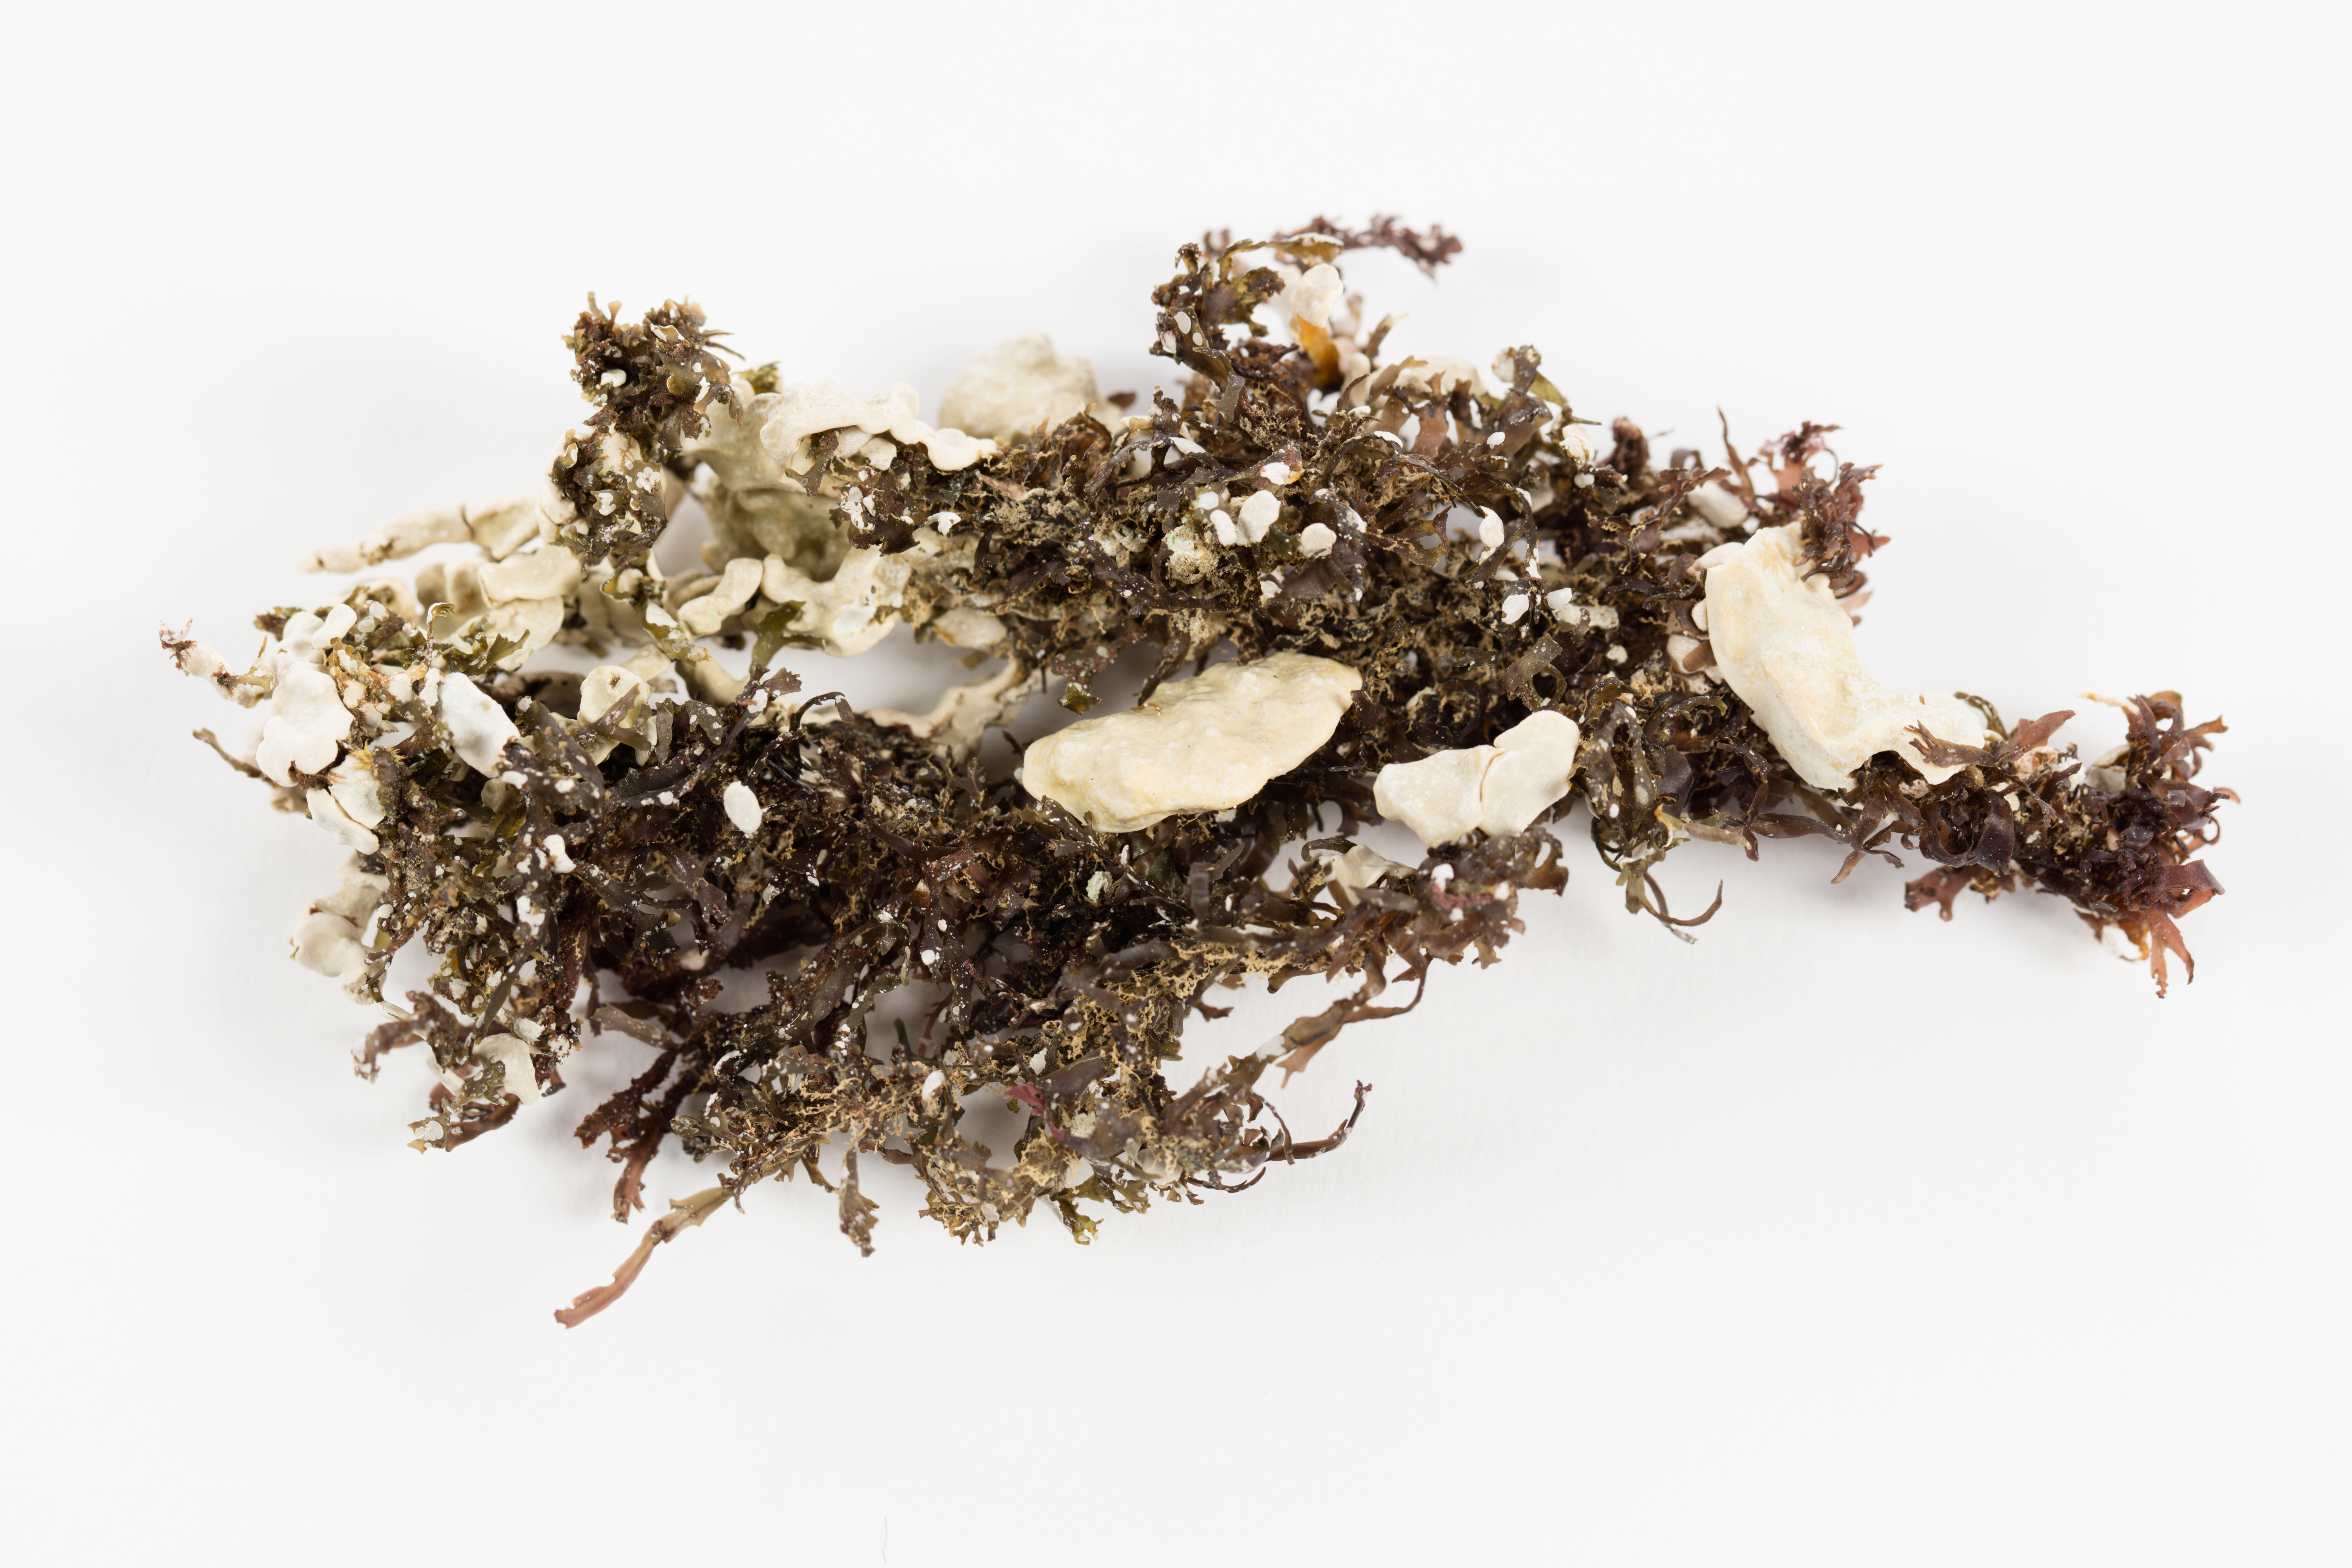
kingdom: Plantae
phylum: Rhodophyta
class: Florideophyceae
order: Corallinales
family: Corallinaceae
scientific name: Corallinaceae
